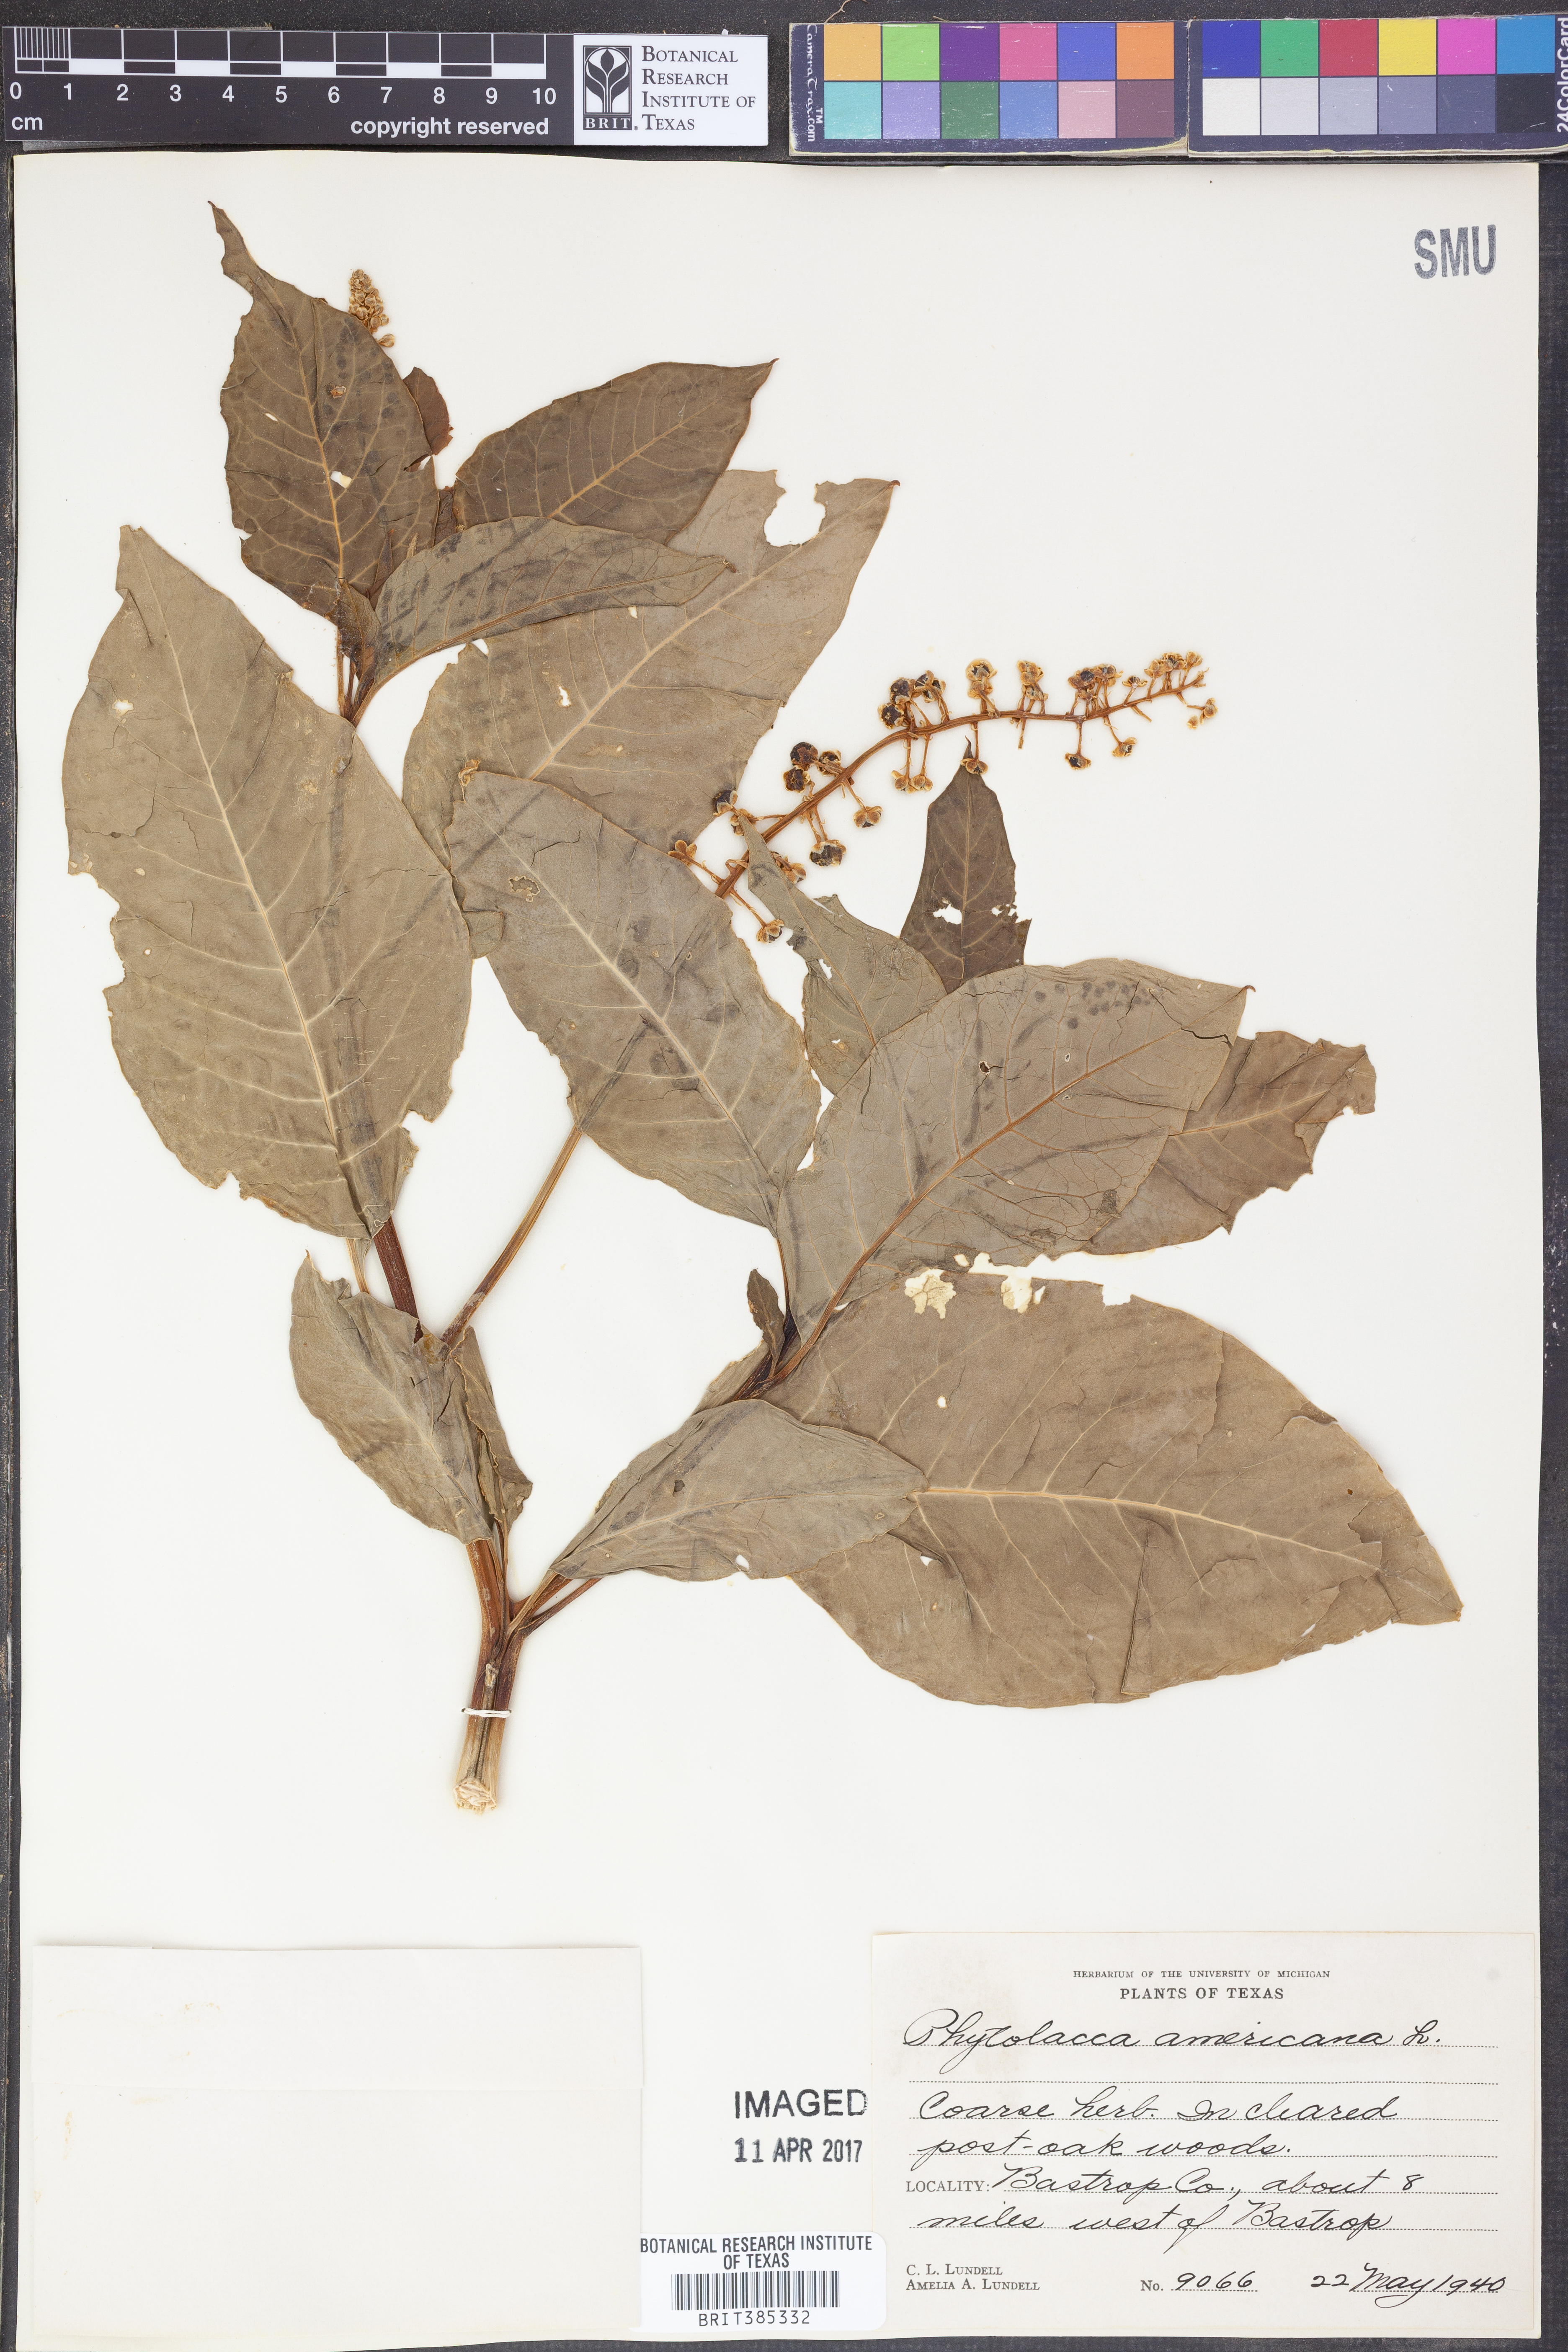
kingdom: Plantae
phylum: Tracheophyta
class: Magnoliopsida
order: Caryophyllales
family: Phytolaccaceae
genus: Phytolacca
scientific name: Phytolacca americana
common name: American pokeweed
